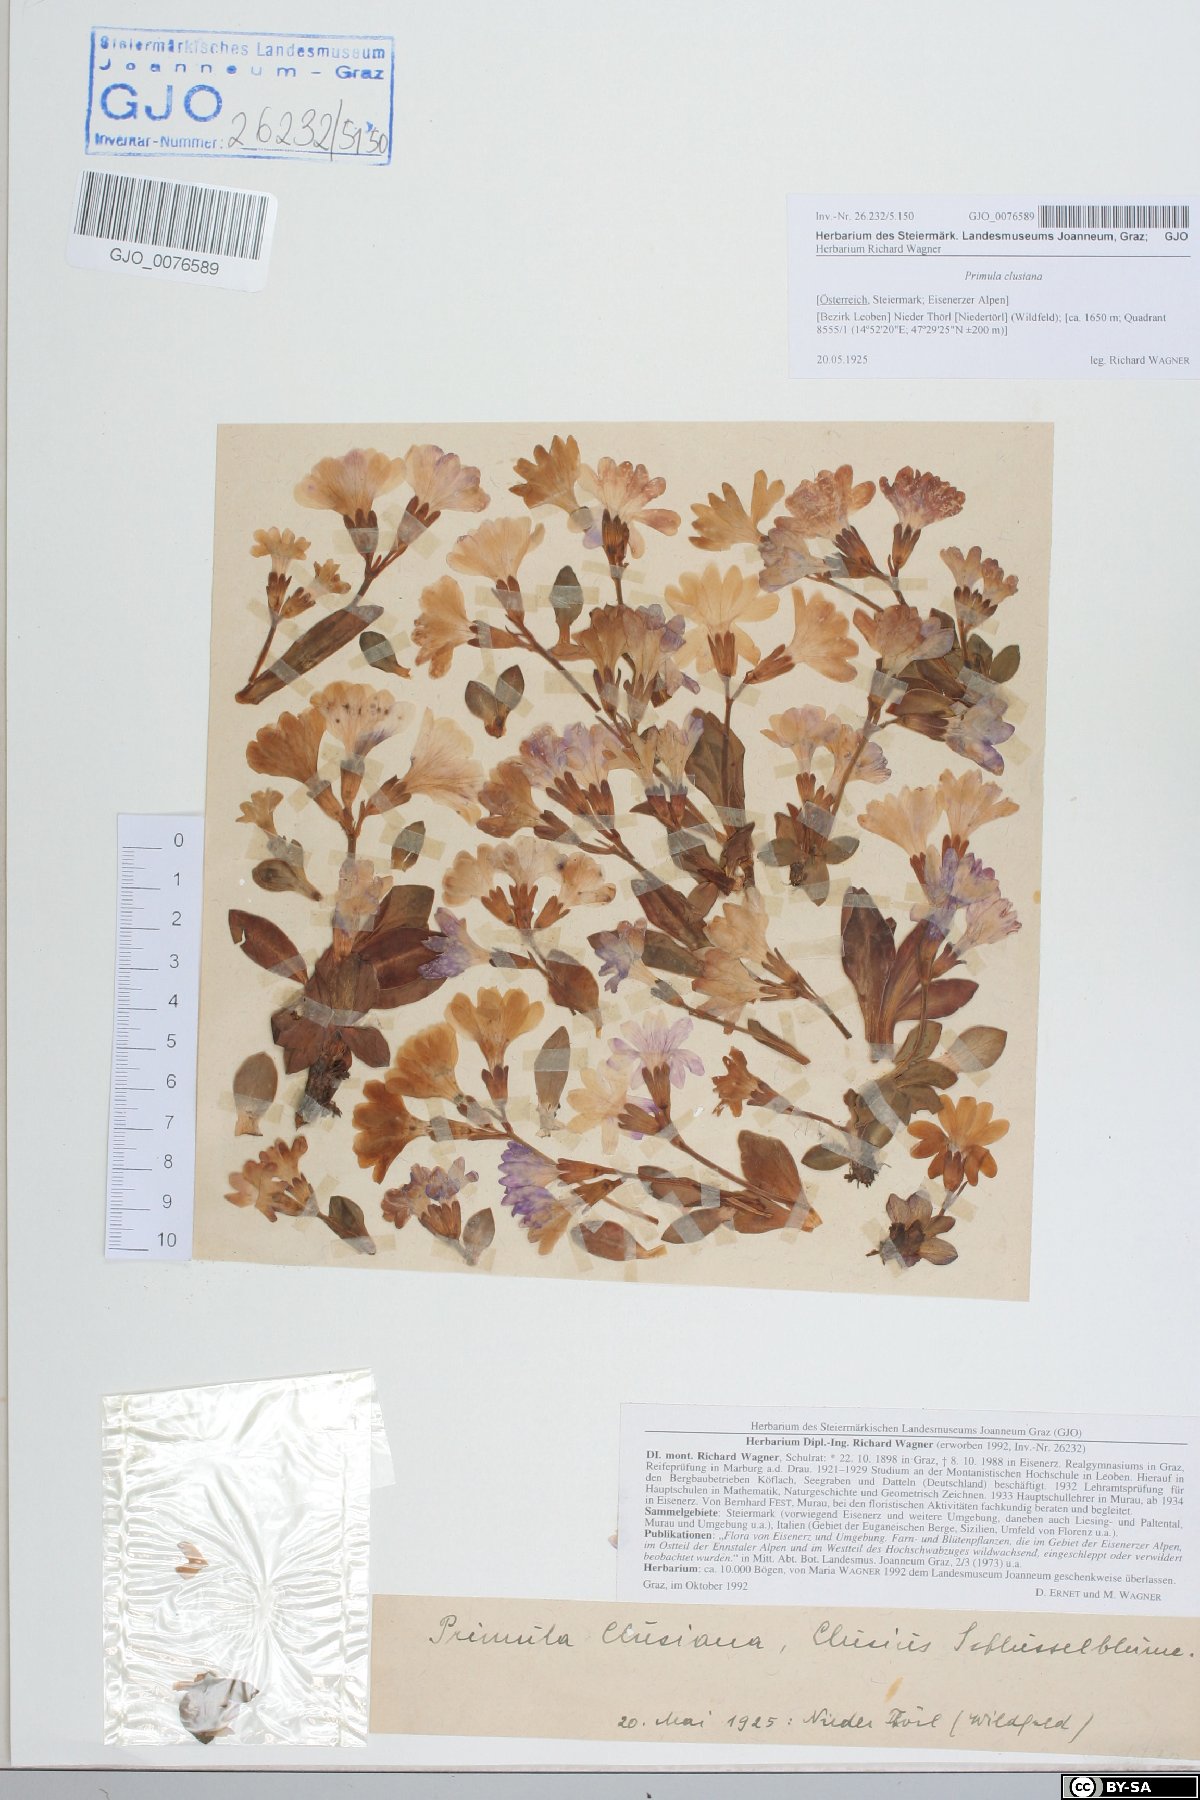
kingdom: Plantae
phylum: Tracheophyta
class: Magnoliopsida
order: Ericales
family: Primulaceae
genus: Primula
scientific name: Primula clusiana
